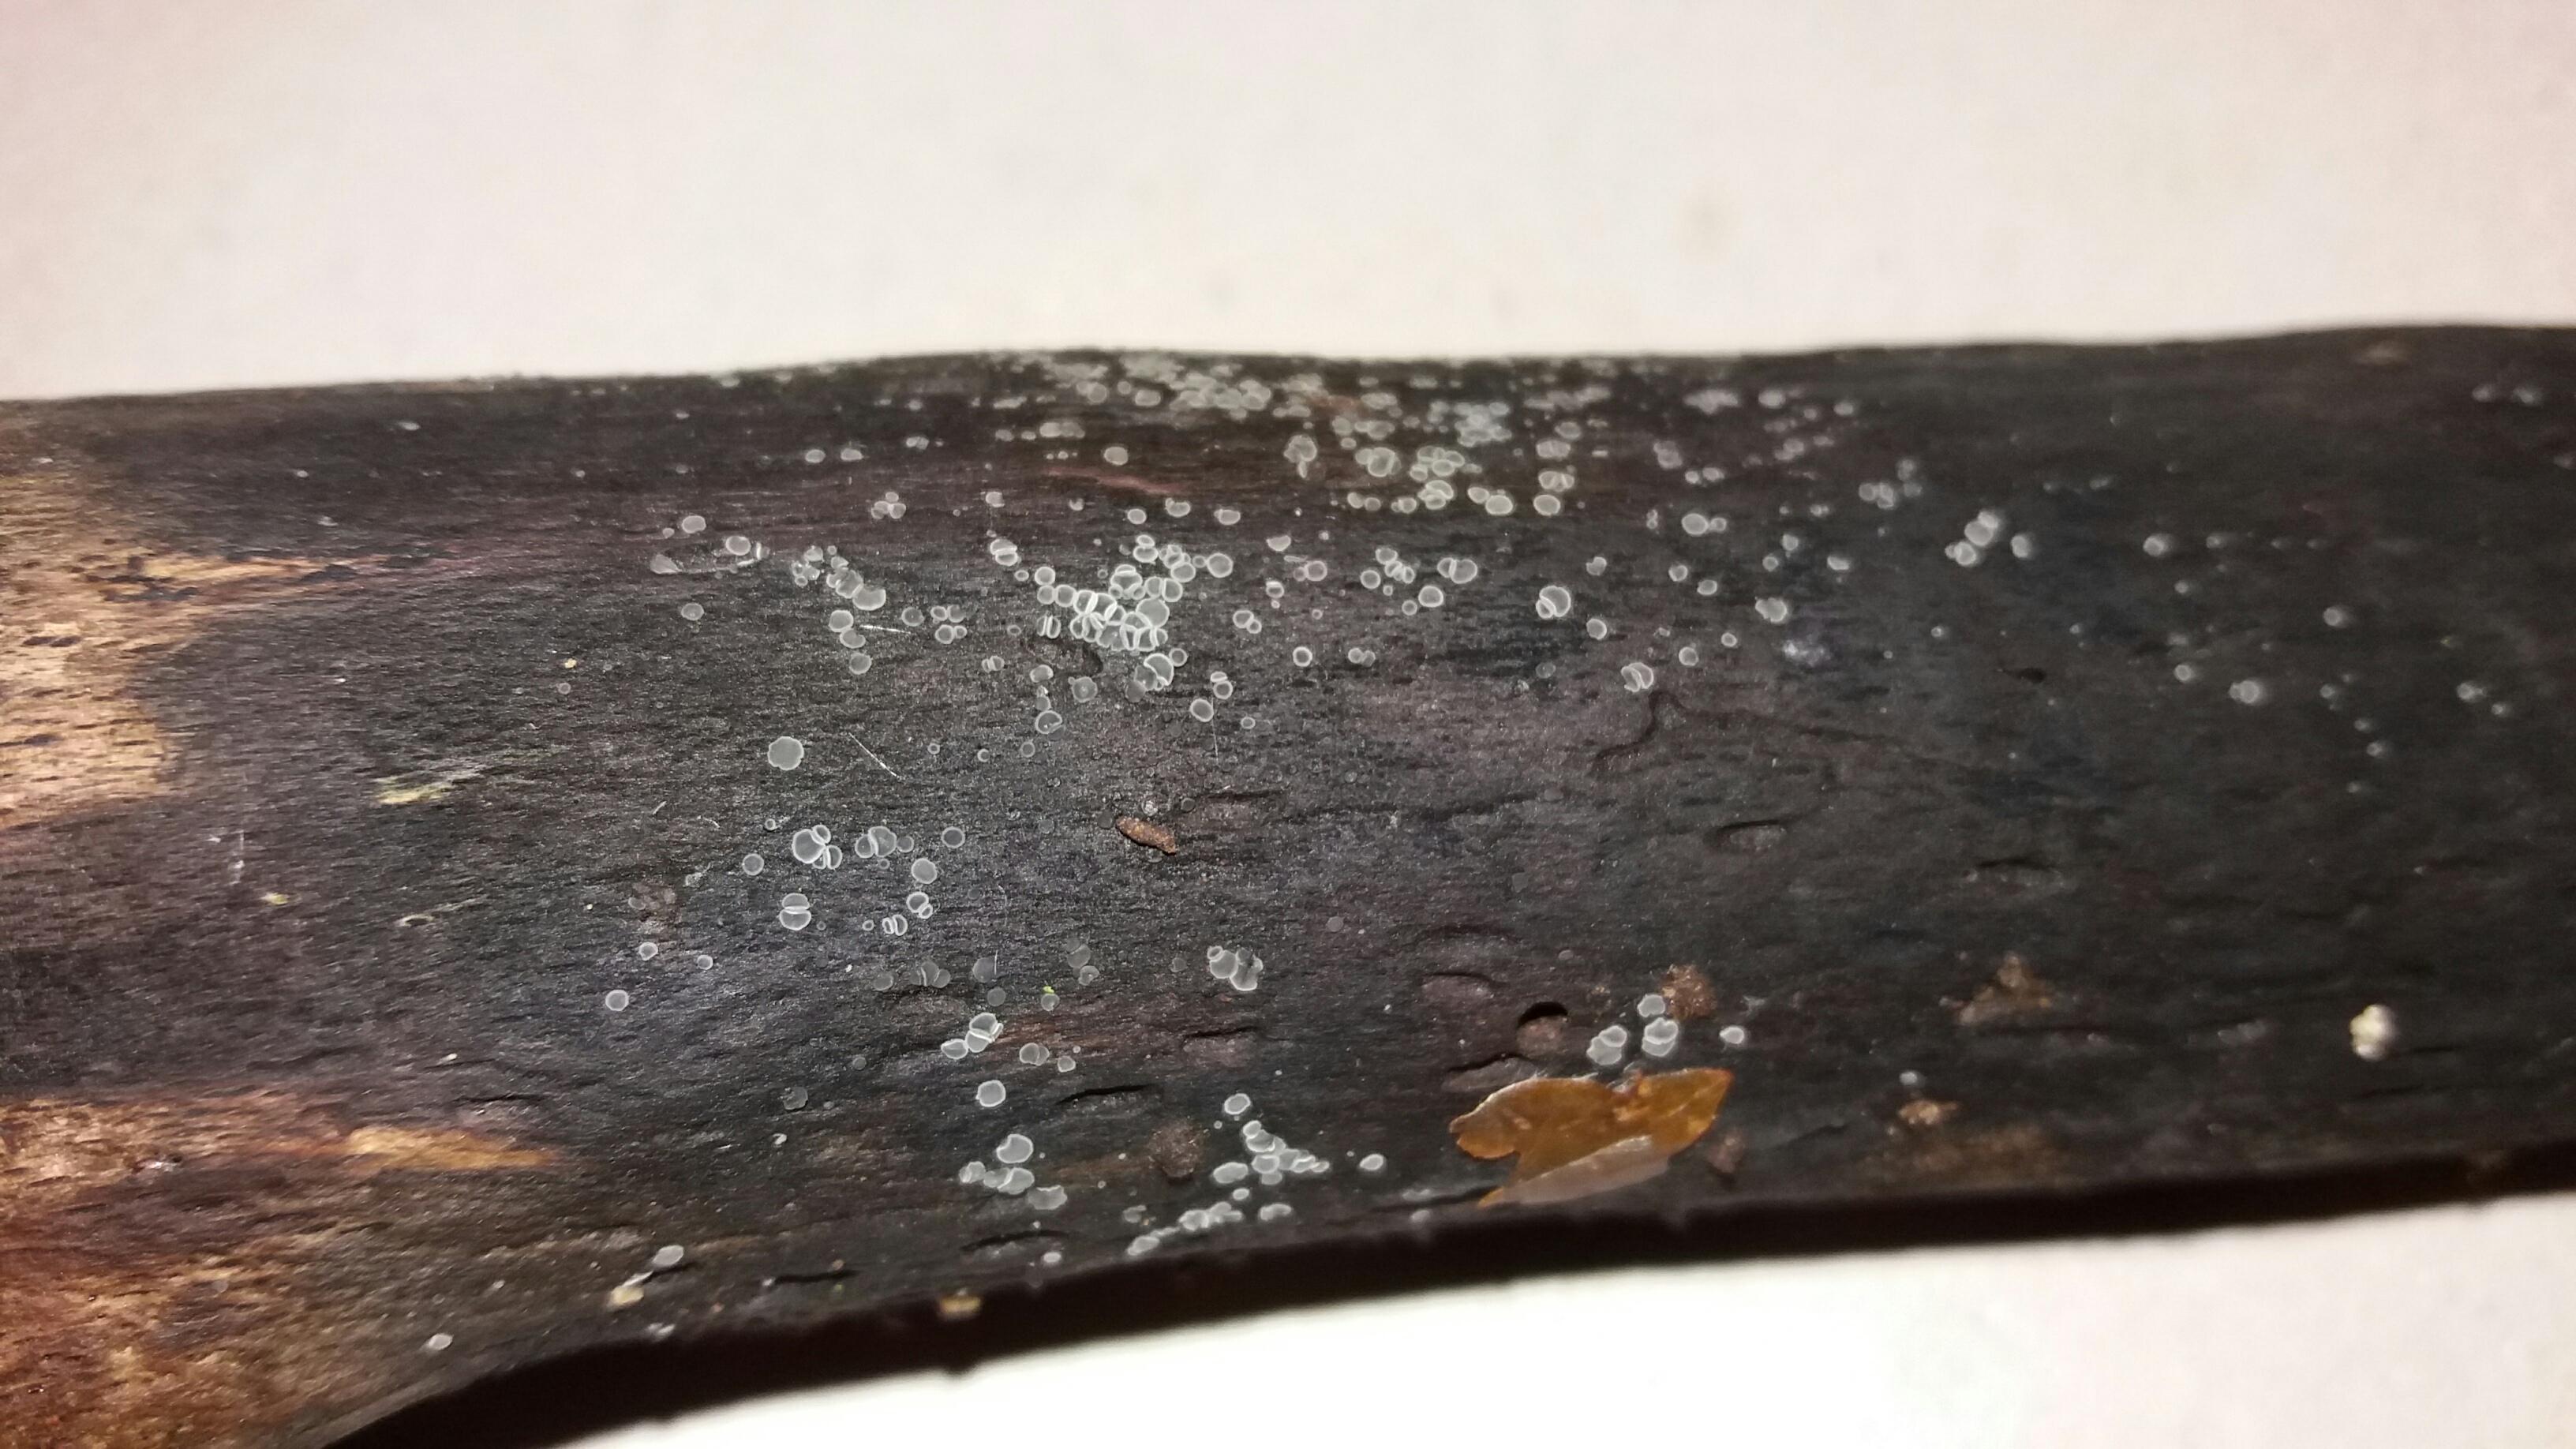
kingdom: Fungi
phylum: Ascomycota
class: Leotiomycetes
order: Helotiales
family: Mollisiaceae
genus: Mollisia
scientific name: Mollisia cinerea
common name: almindelig gråskive
